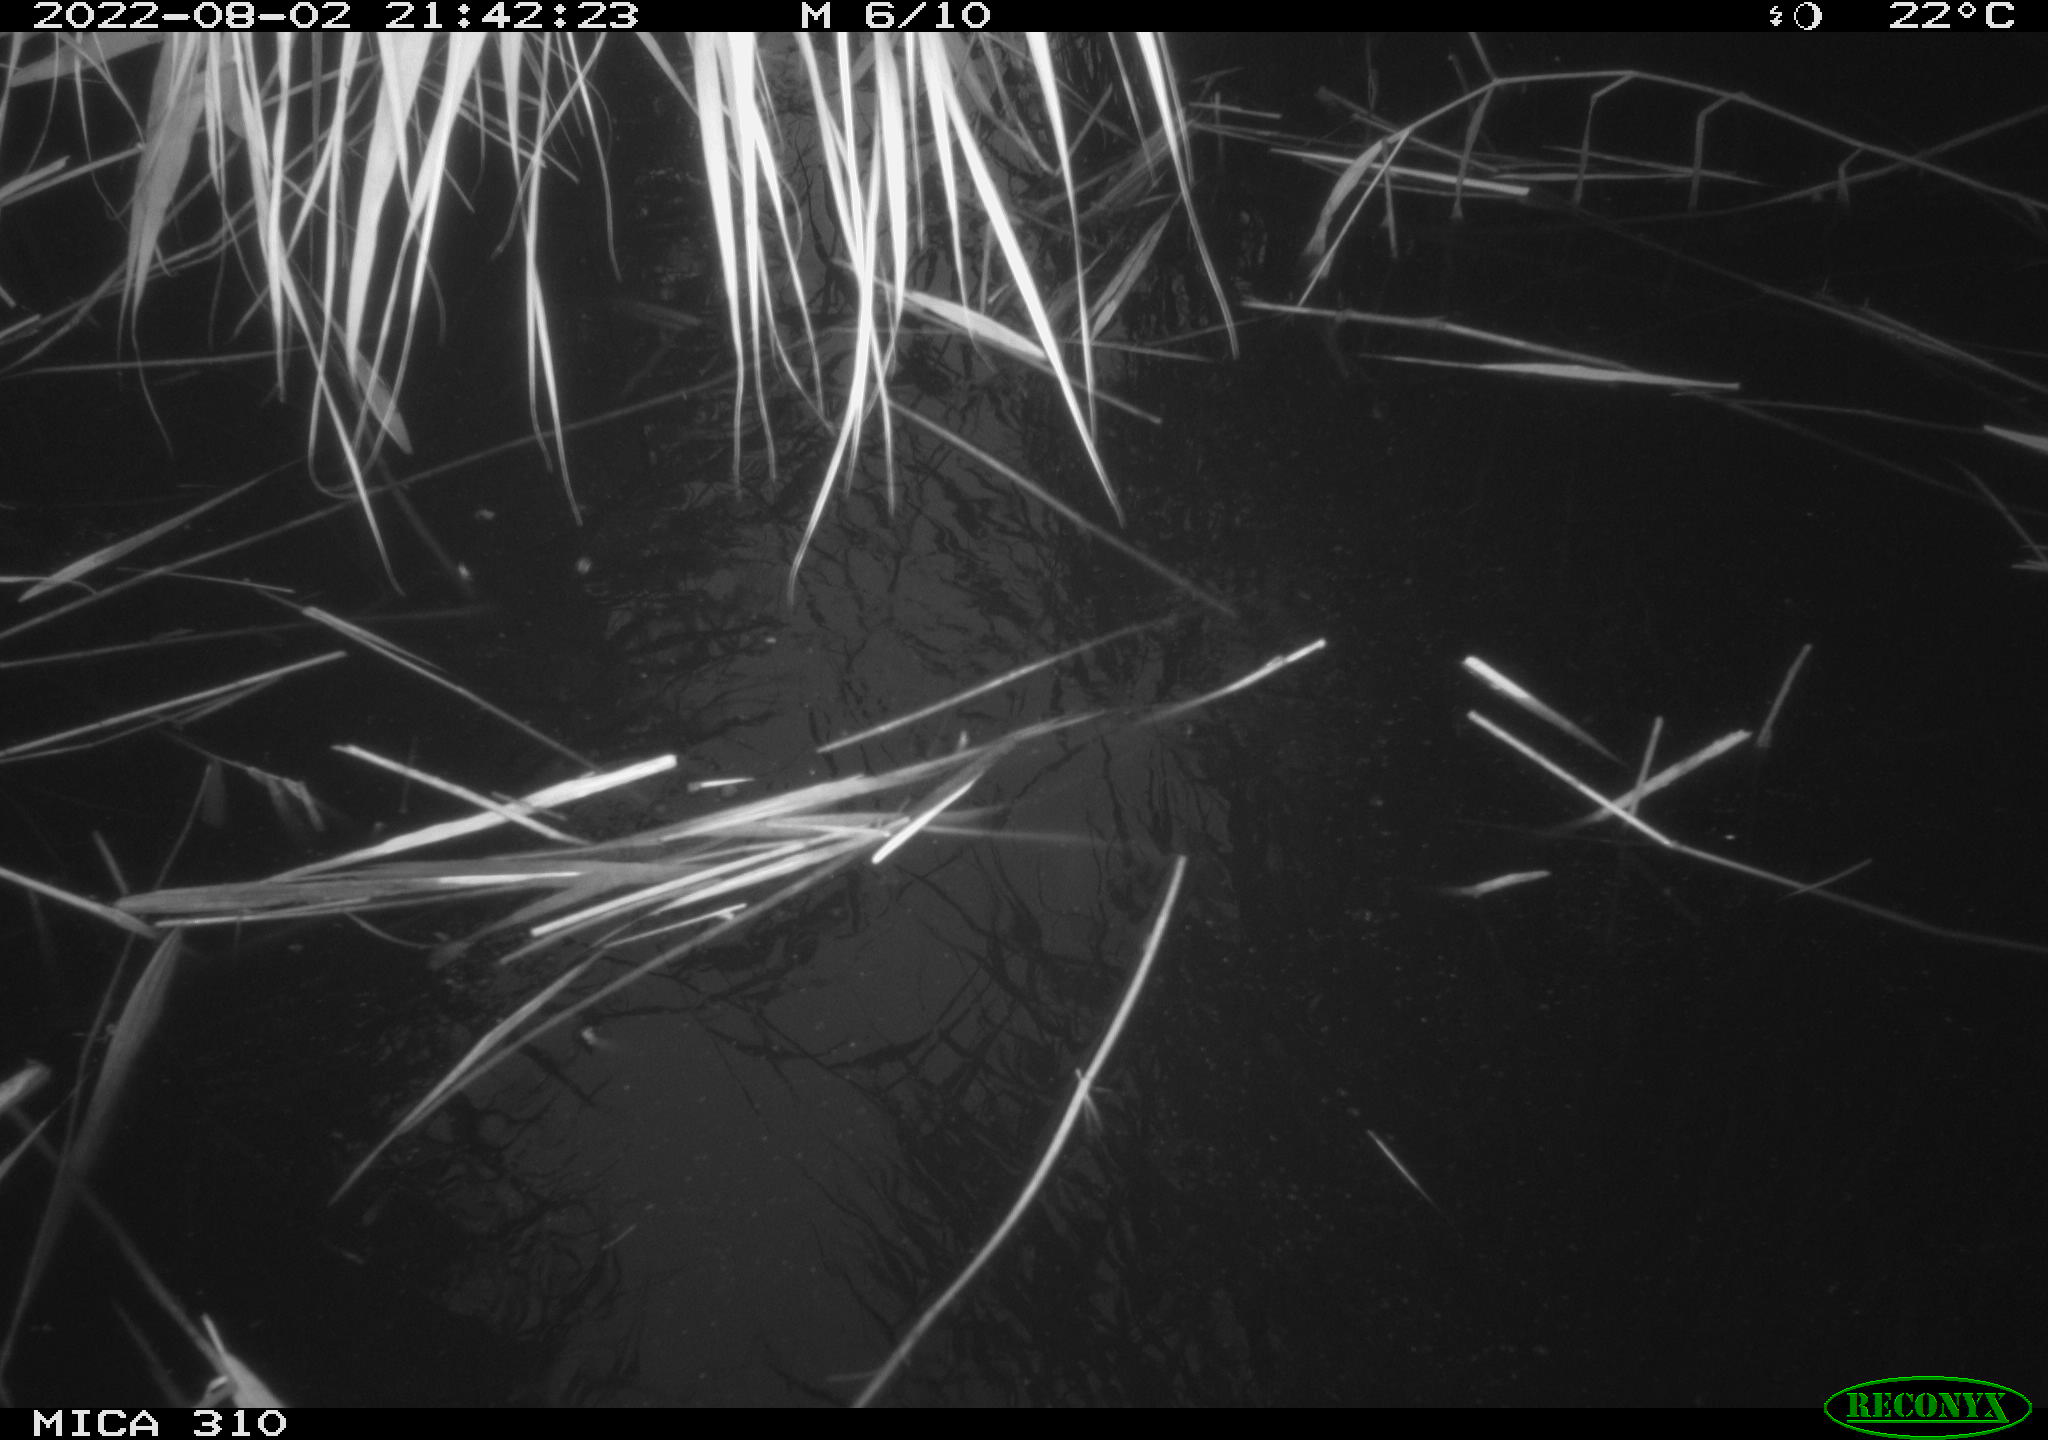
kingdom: Animalia
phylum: Chordata
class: Aves
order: Anseriformes
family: Anatidae
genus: Anas
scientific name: Anas platyrhynchos
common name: Mallard
